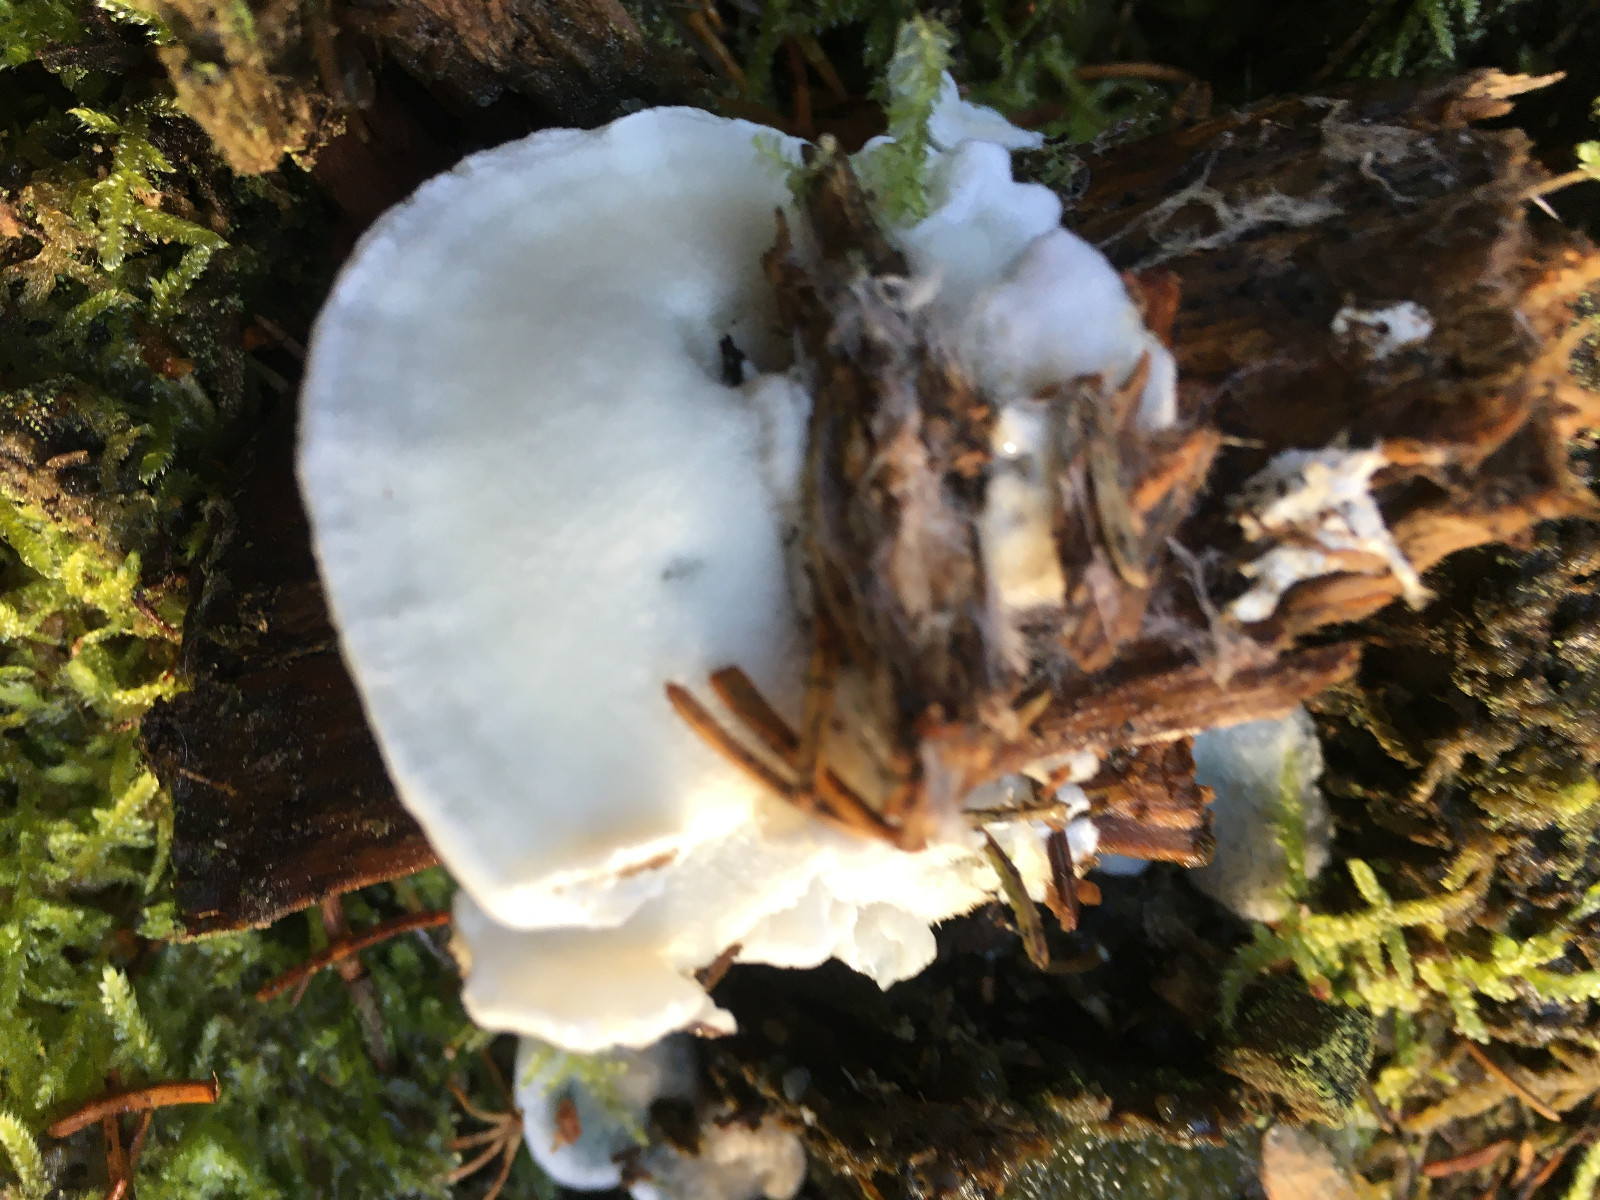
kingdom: Fungi
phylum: Basidiomycota
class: Agaricomycetes
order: Polyporales
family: Polyporaceae
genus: Cyanosporus
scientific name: Cyanosporus caesius
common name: blålig kødporesvamp
